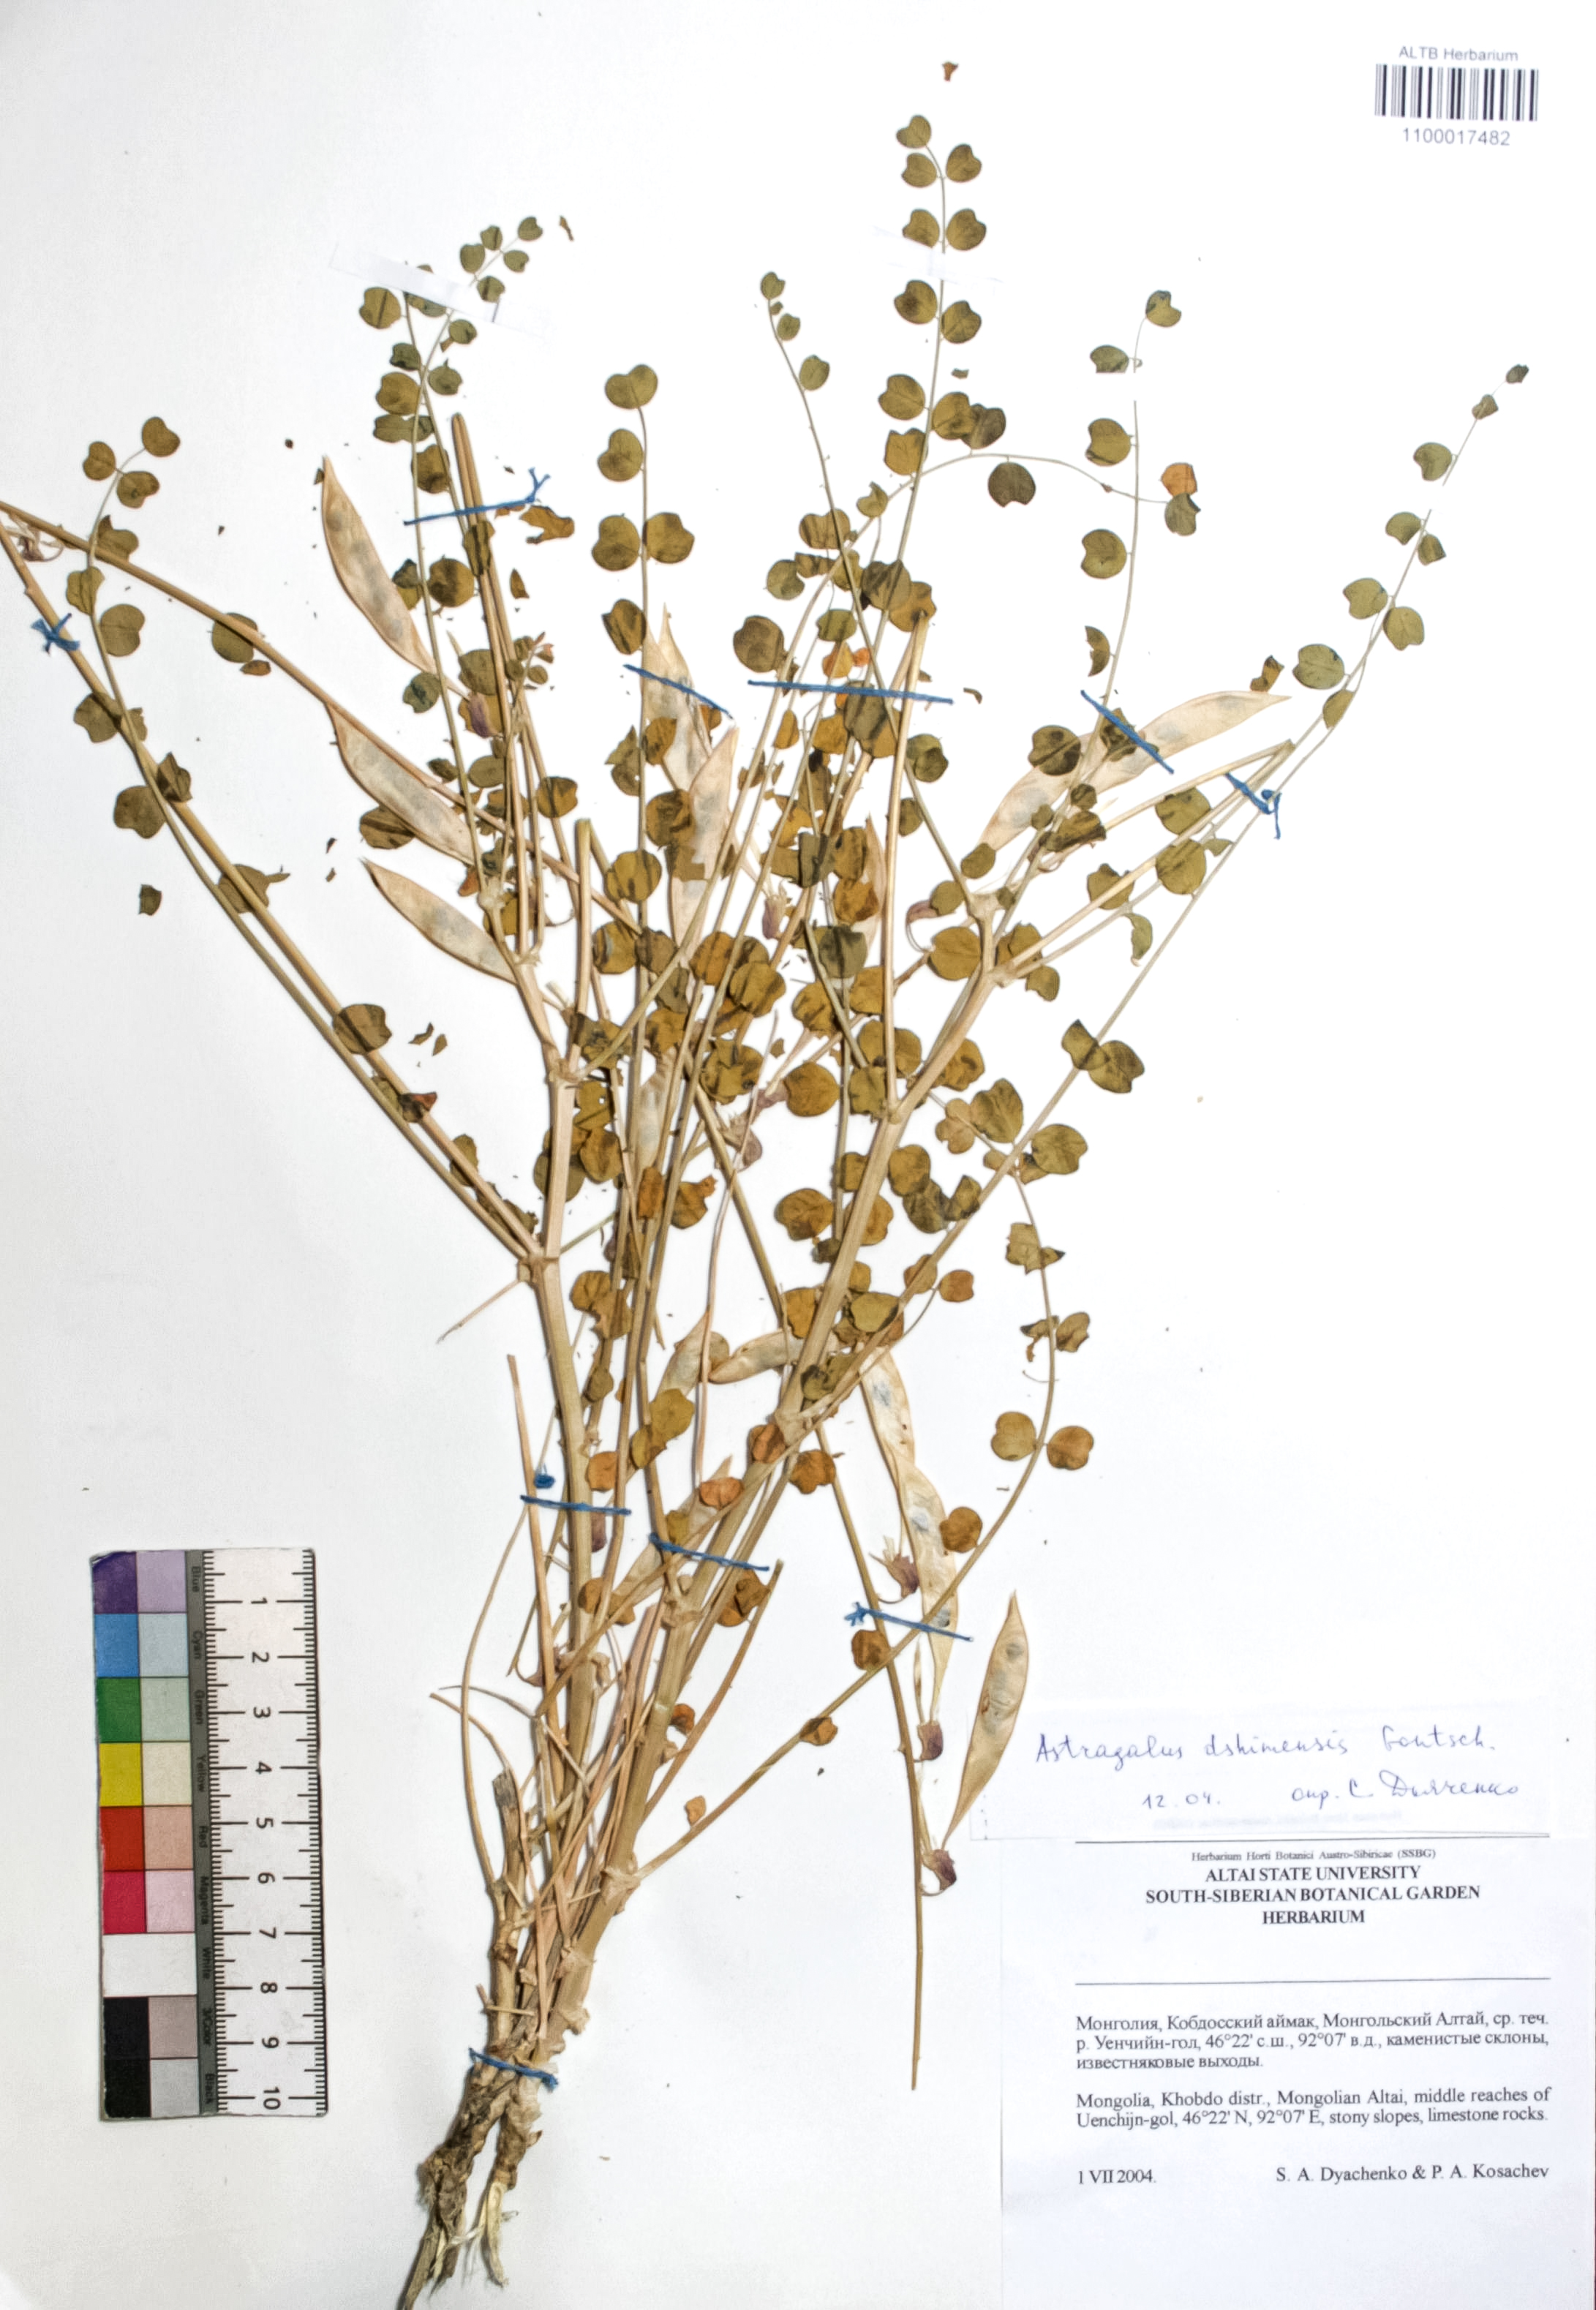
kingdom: Plantae
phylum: Tracheophyta
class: Magnoliopsida
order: Fabales
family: Fabaceae
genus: Astragalus
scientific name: Astragalus dshimensis
